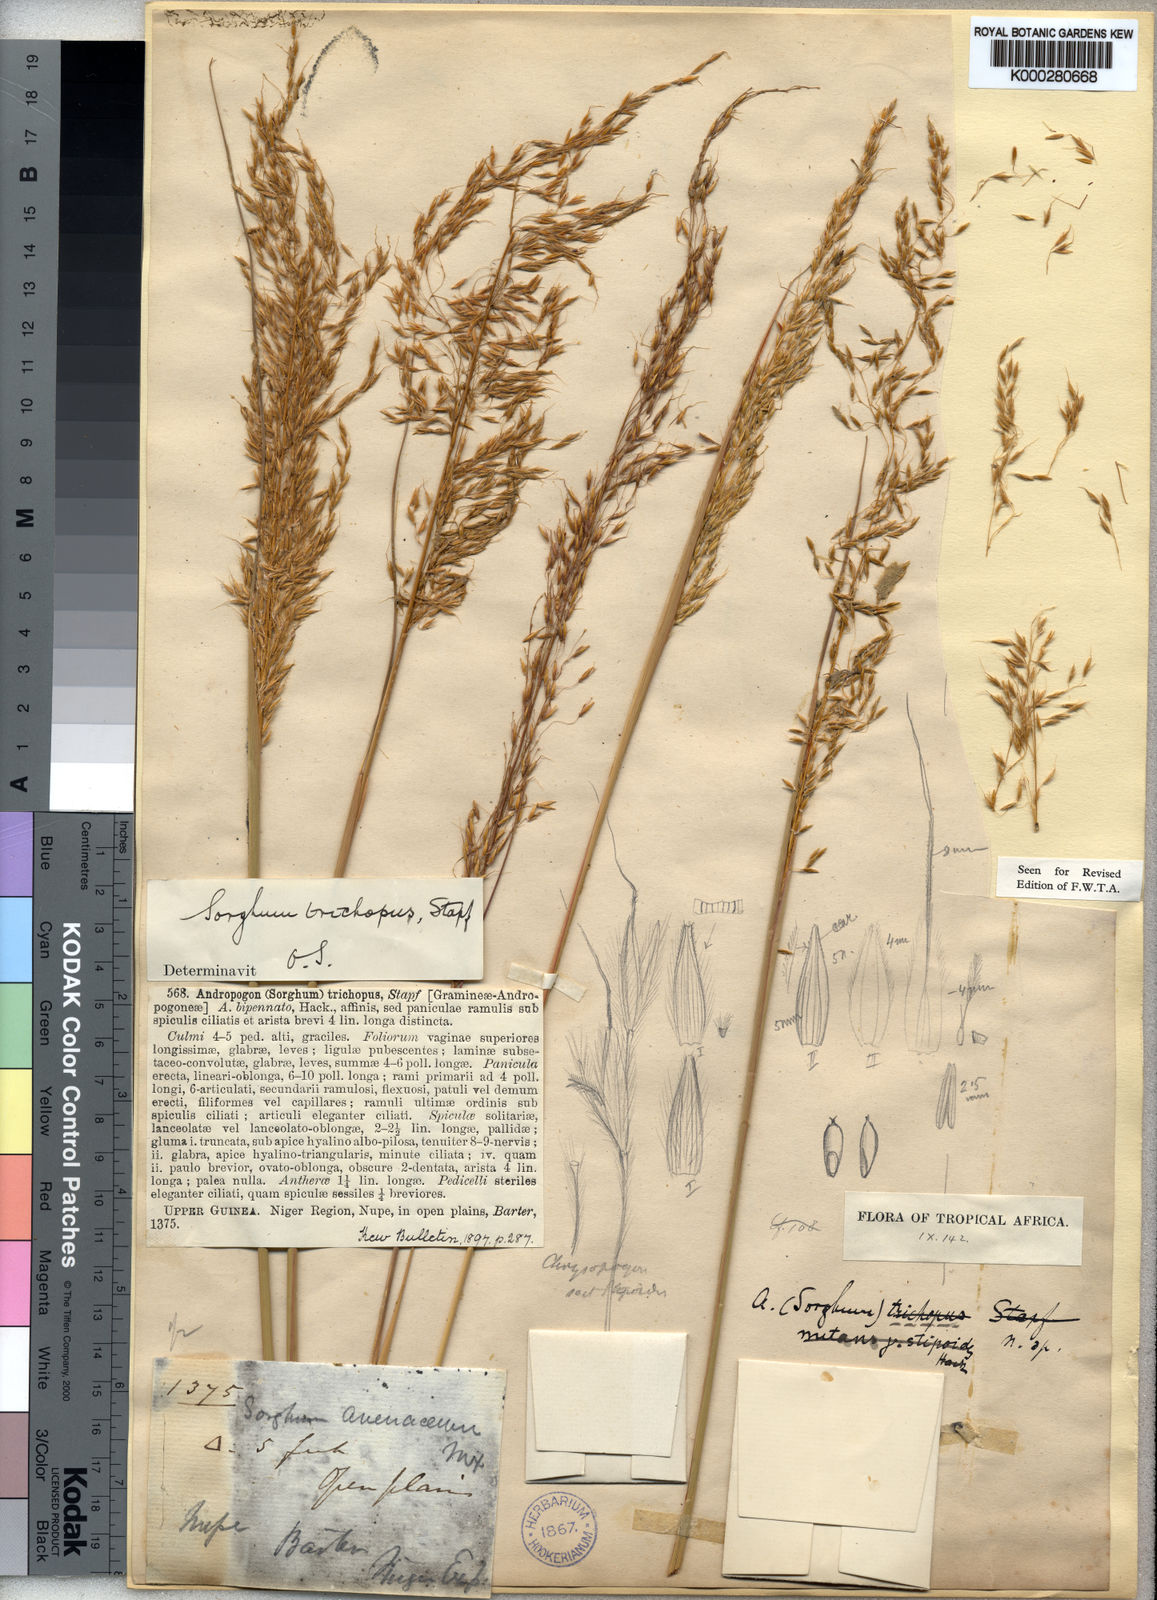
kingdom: Plantae
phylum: Tracheophyta
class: Liliopsida
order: Poales
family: Poaceae
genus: Sorghastrum
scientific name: Sorghastrum stipoides
